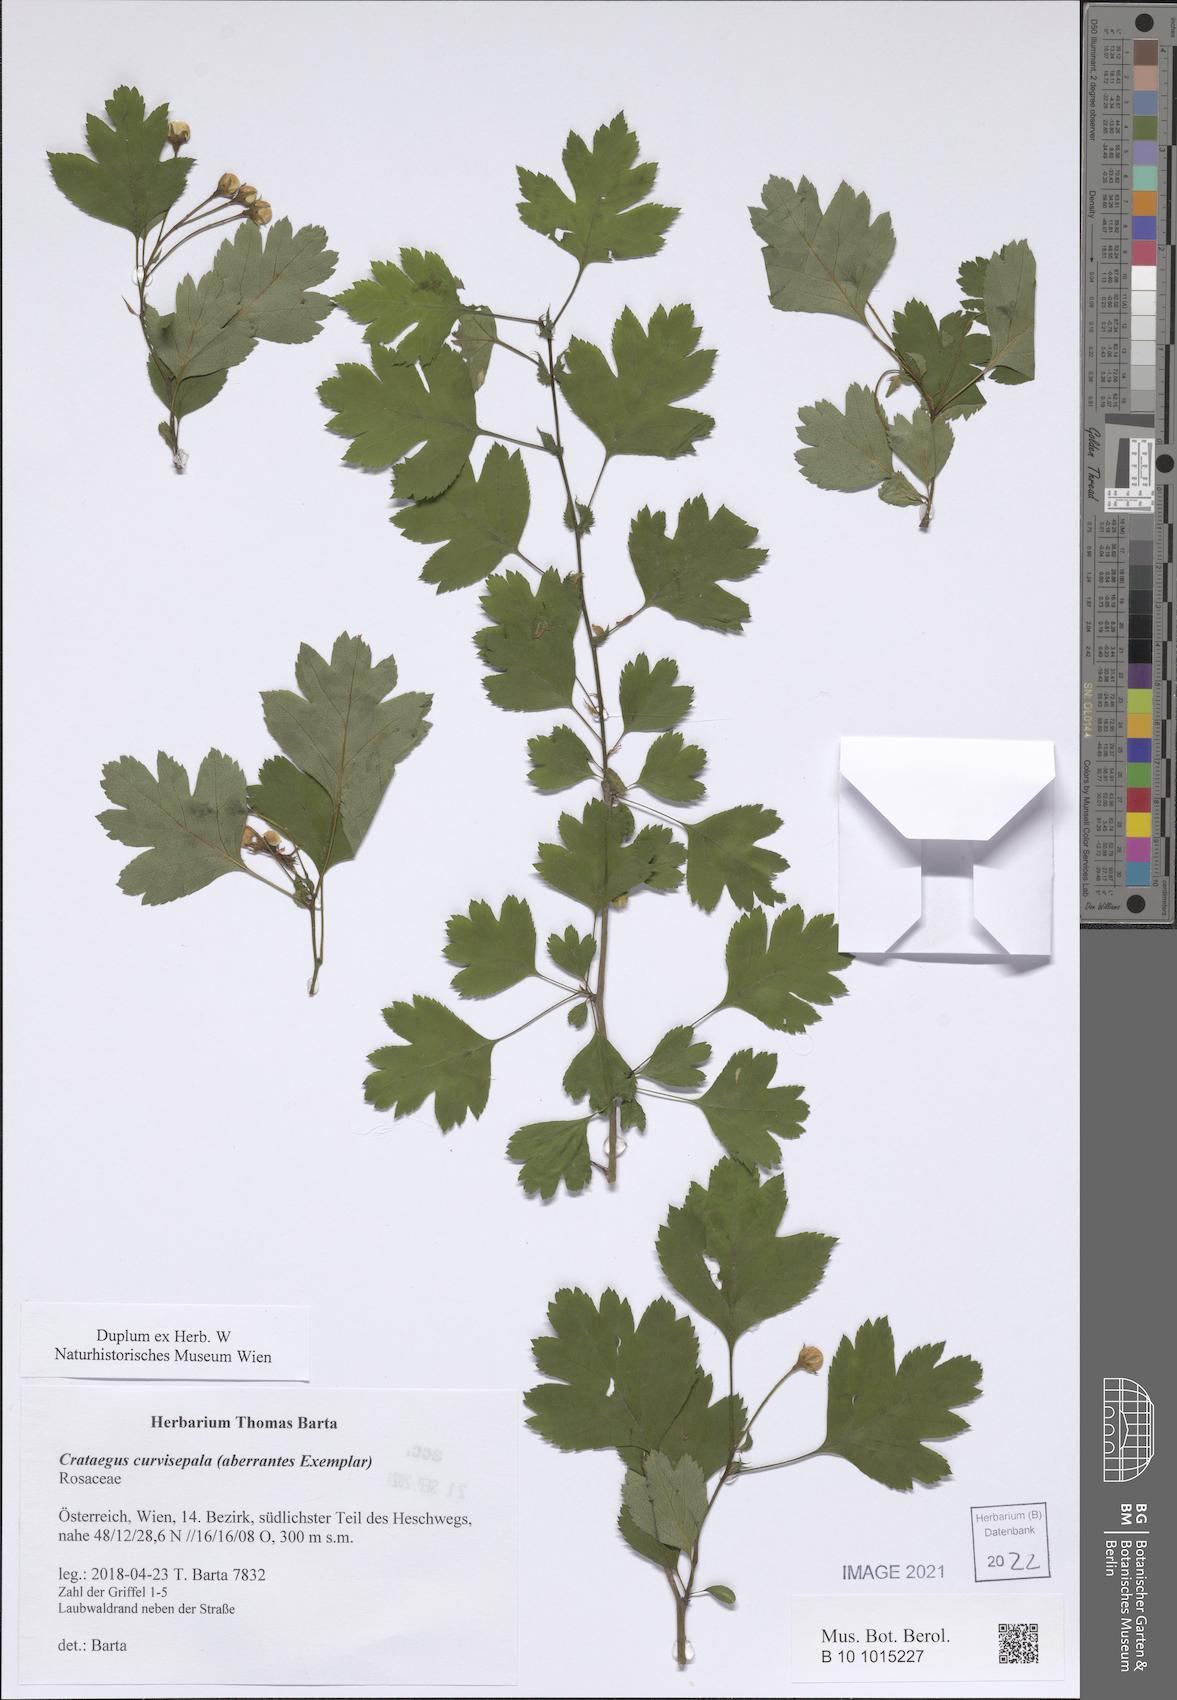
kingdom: Plantae
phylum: Tracheophyta
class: Magnoliopsida
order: Rosales
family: Rosaceae
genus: Crataegus
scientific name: Crataegus rhipidophylla
